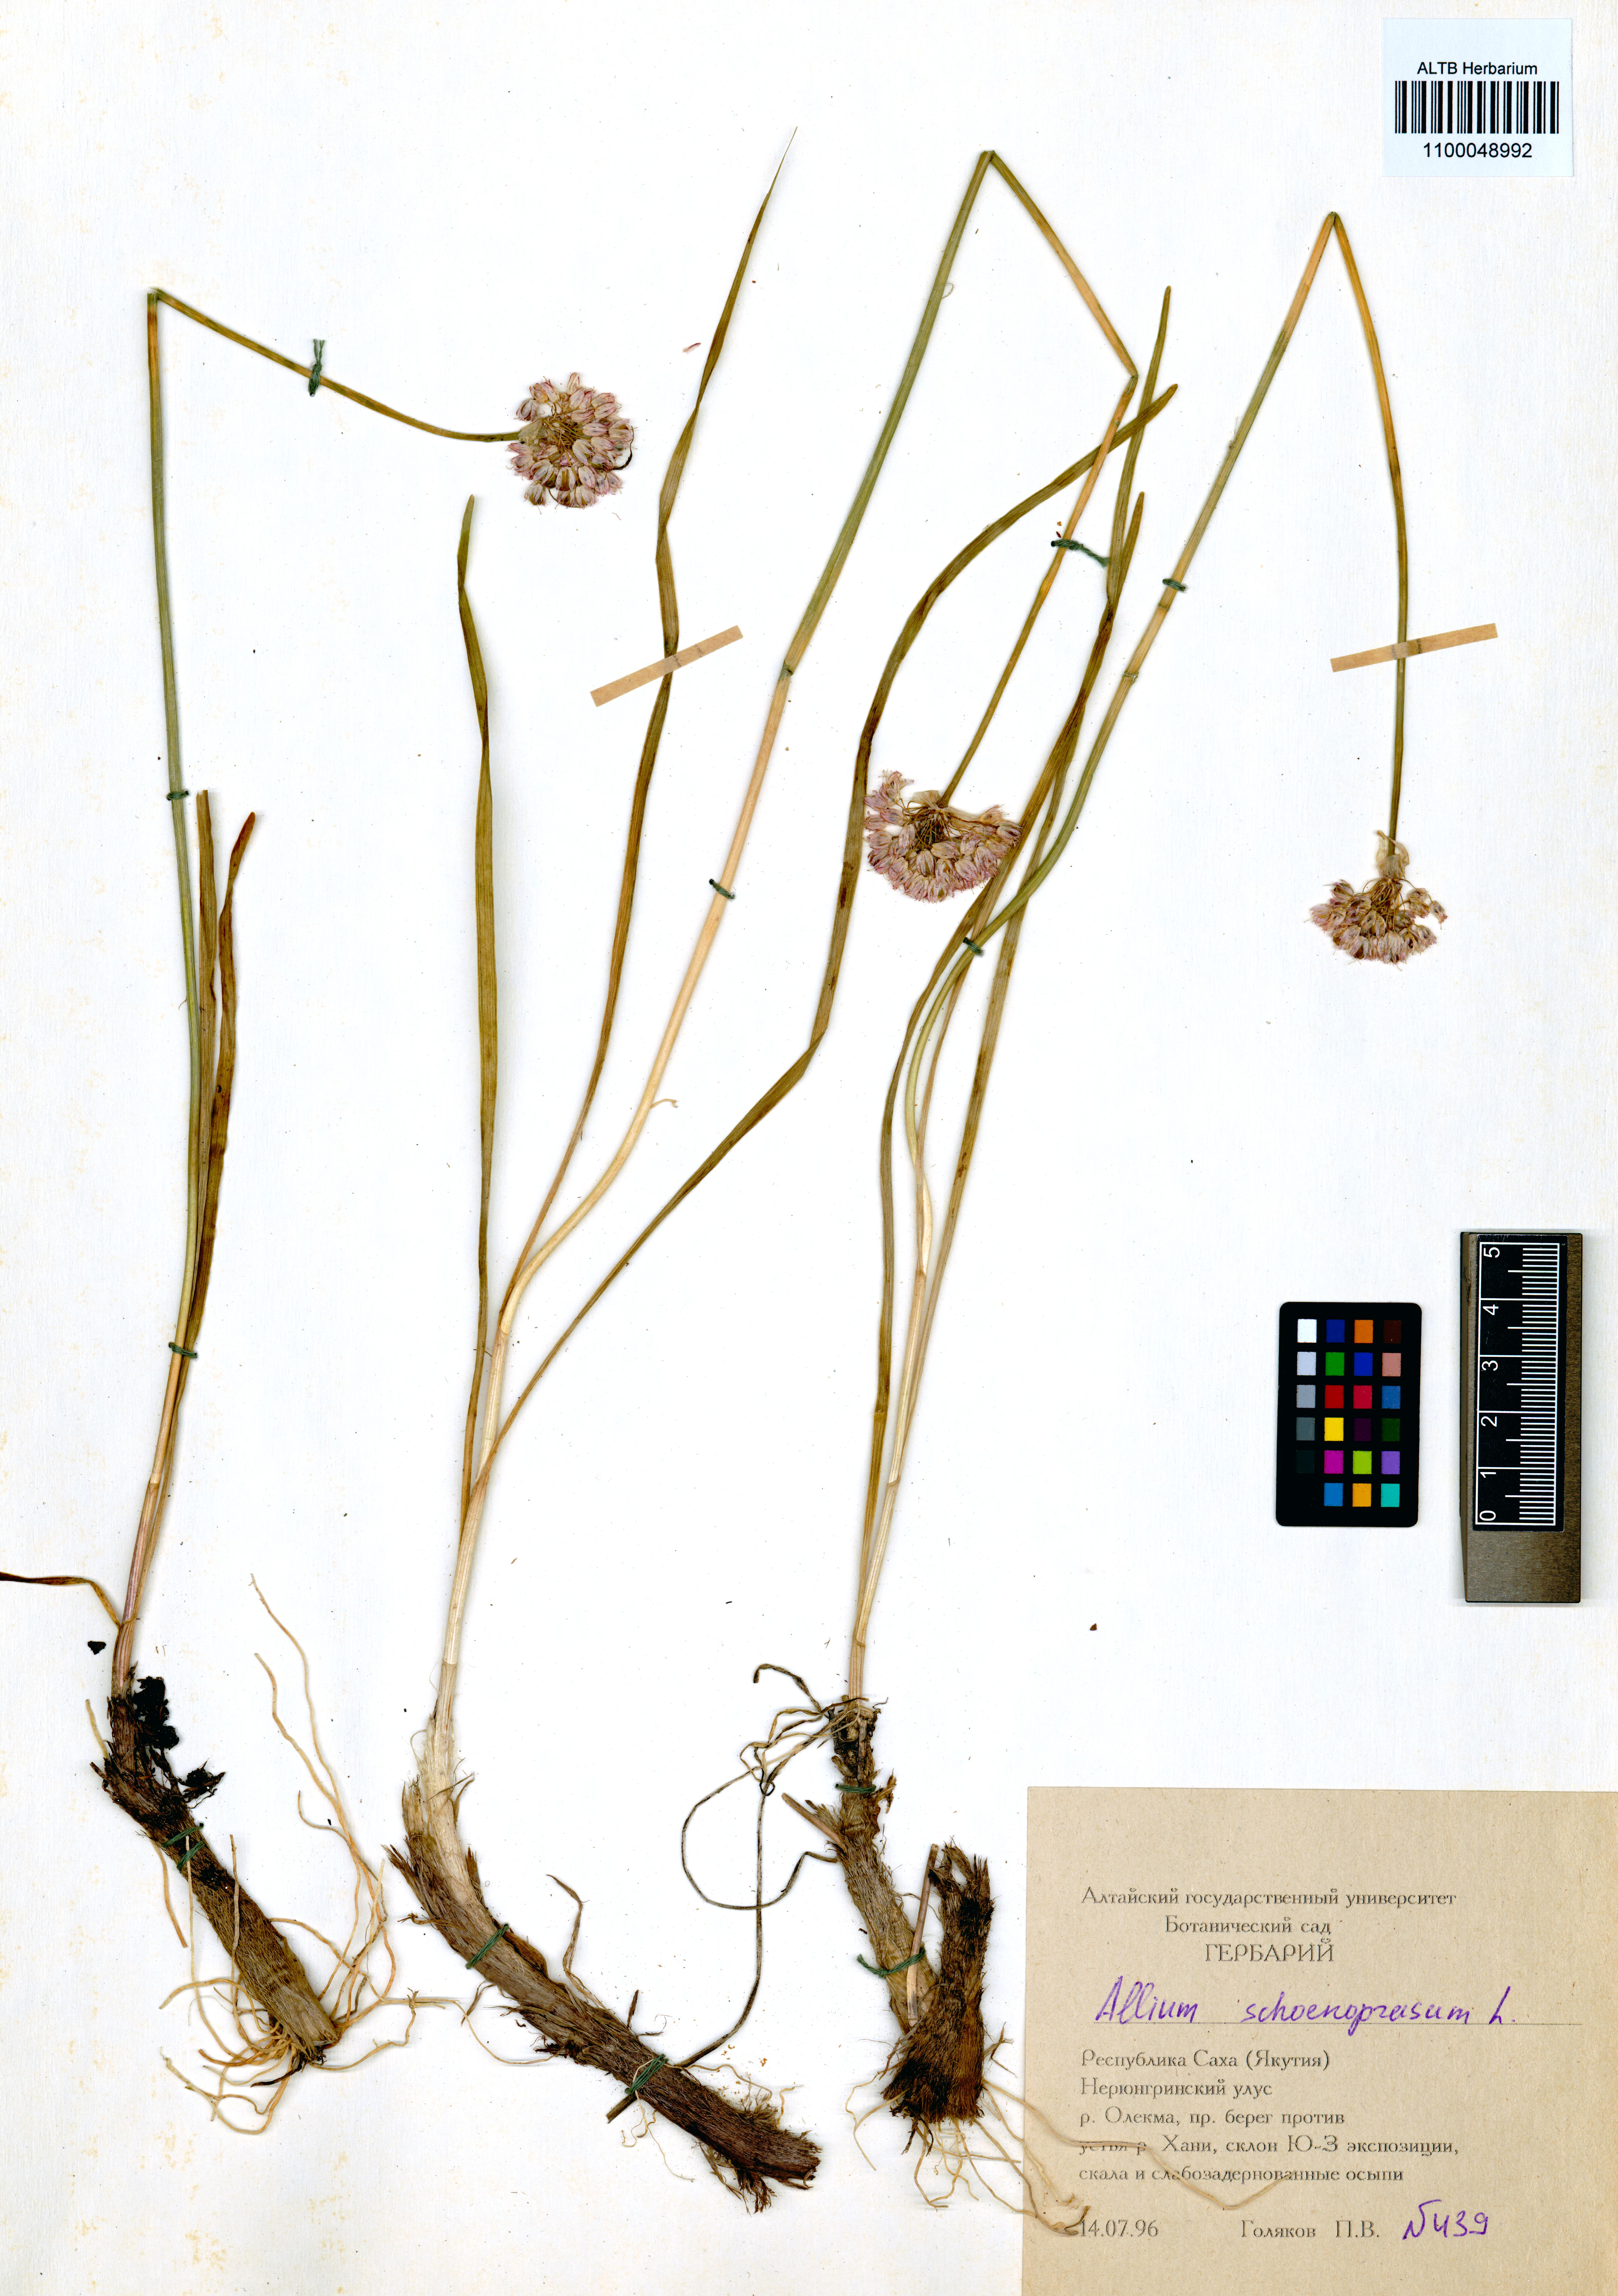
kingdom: Plantae
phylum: Tracheophyta
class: Liliopsida
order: Asparagales
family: Amaryllidaceae
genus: Allium
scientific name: Allium schoenoprasum
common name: Chives
